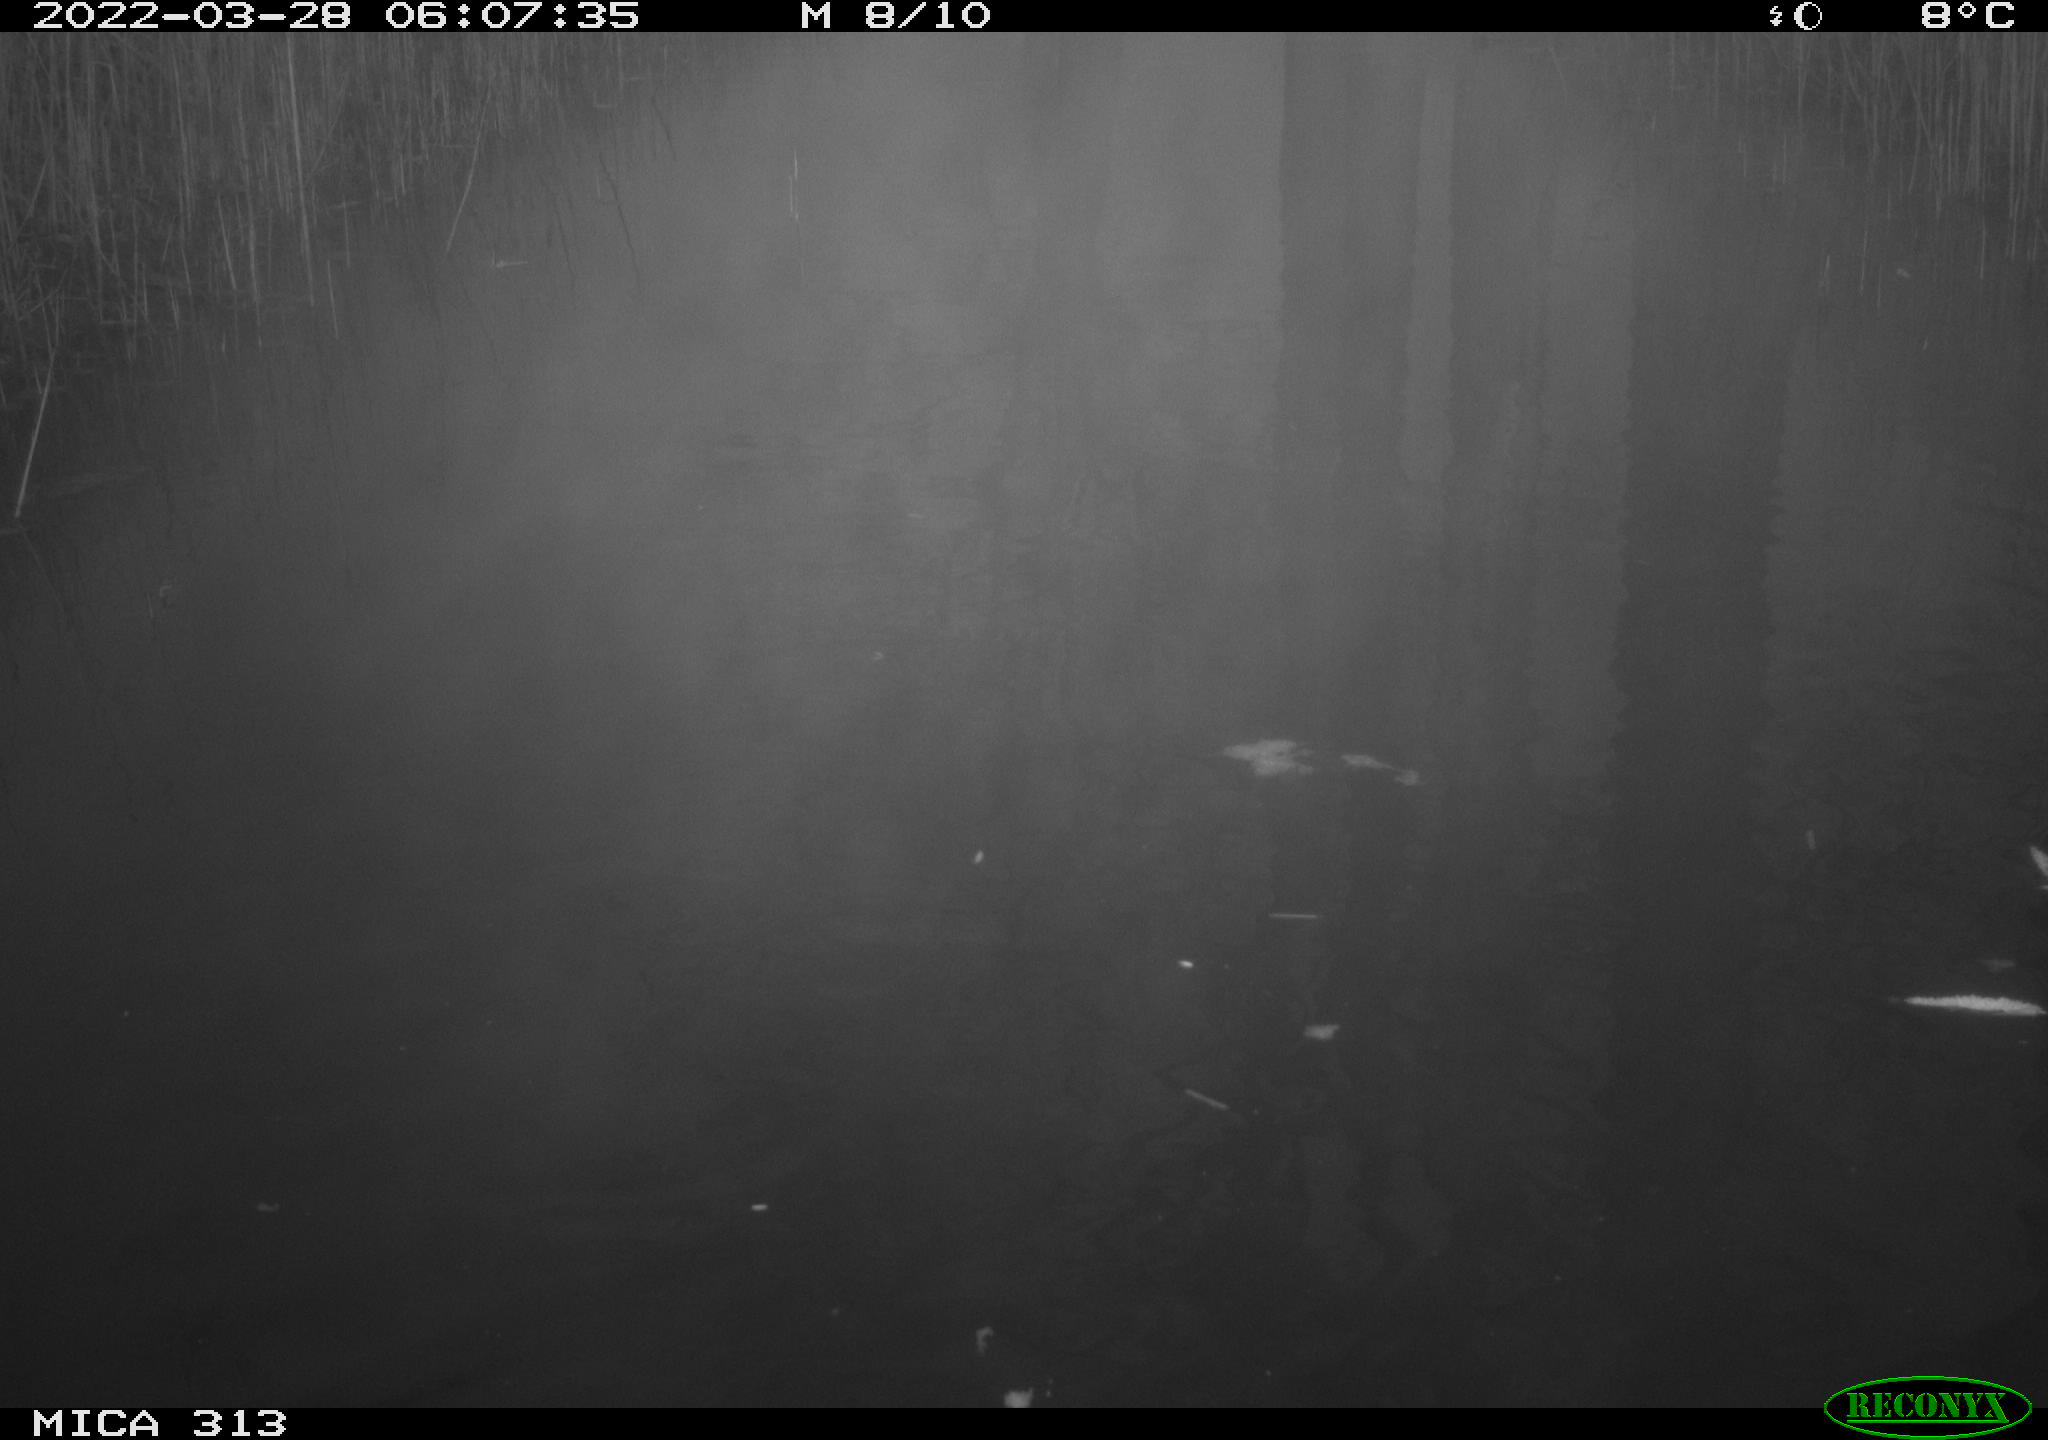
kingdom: Animalia
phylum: Chordata
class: Aves
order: Gruiformes
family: Rallidae
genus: Fulica
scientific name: Fulica atra
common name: Eurasian coot
